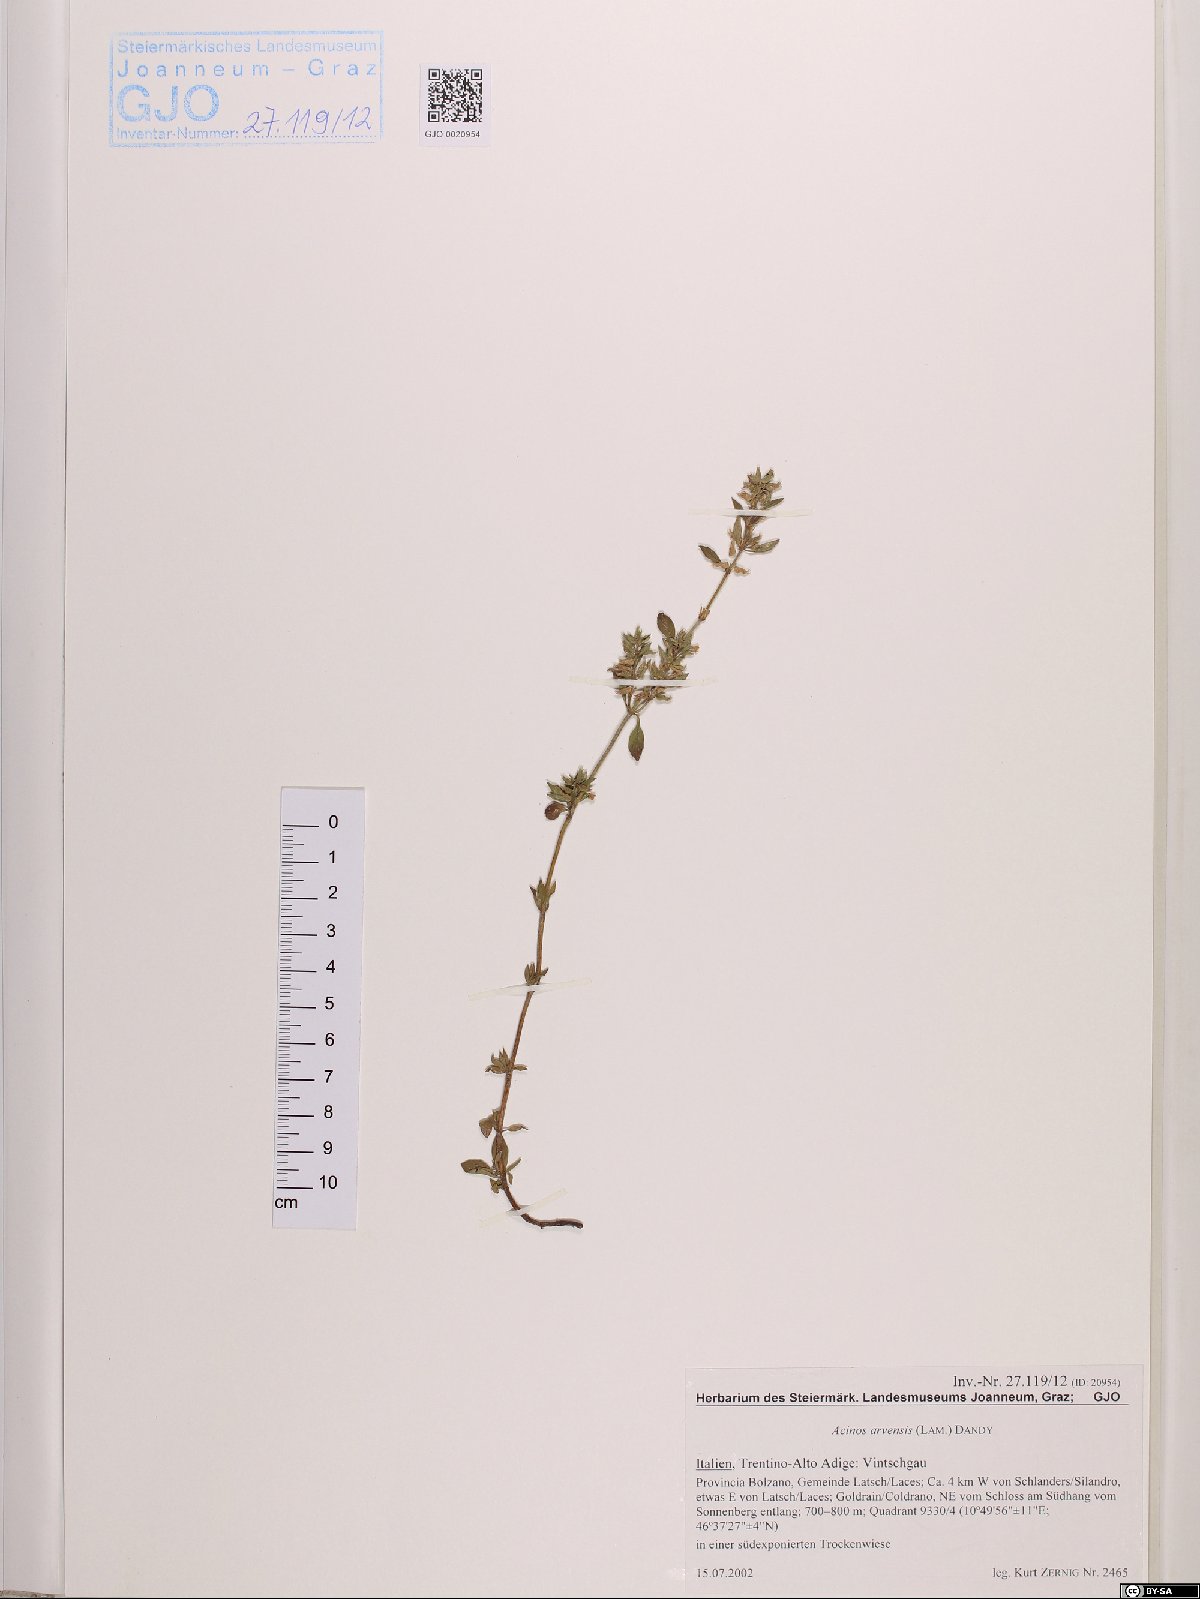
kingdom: Plantae
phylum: Tracheophyta
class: Magnoliopsida
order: Lamiales
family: Lamiaceae
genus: Clinopodium
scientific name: Clinopodium acinos
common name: Basil thyme
